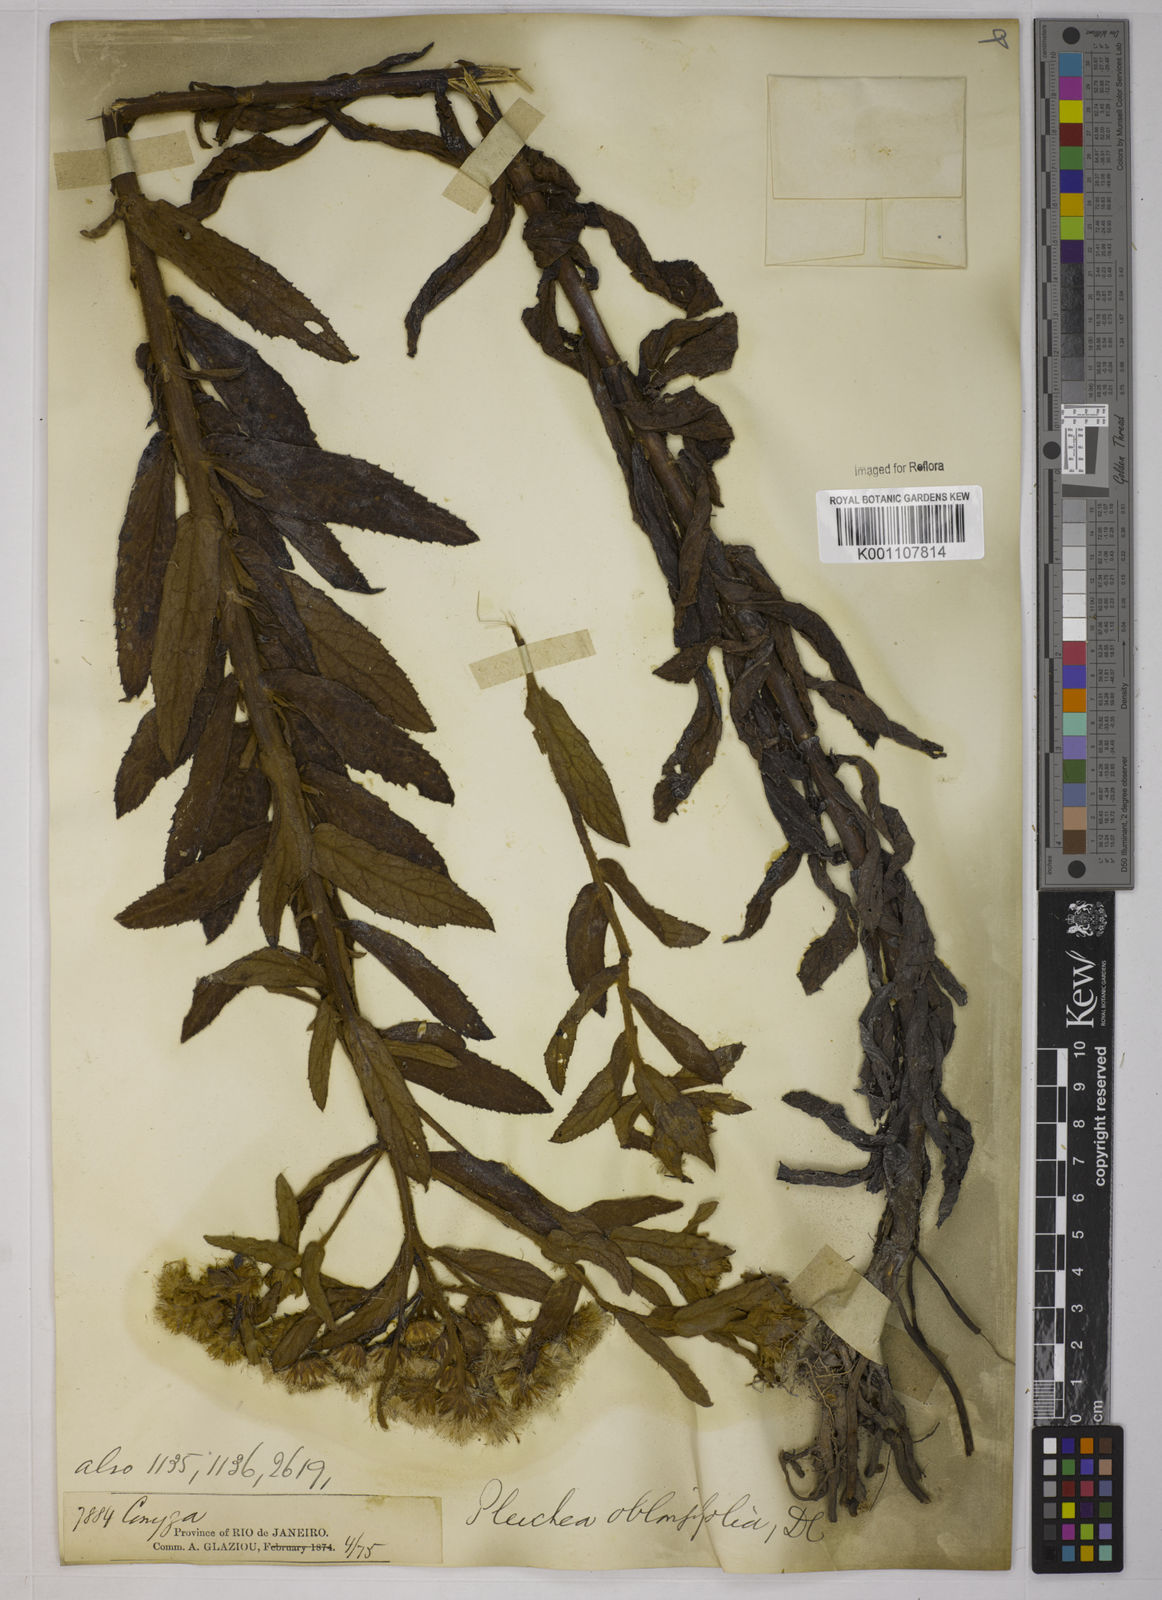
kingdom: Plantae
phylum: Tracheophyta
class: Magnoliopsida
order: Asterales
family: Asteraceae
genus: Pluchea
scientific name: Pluchea oblongifolia
